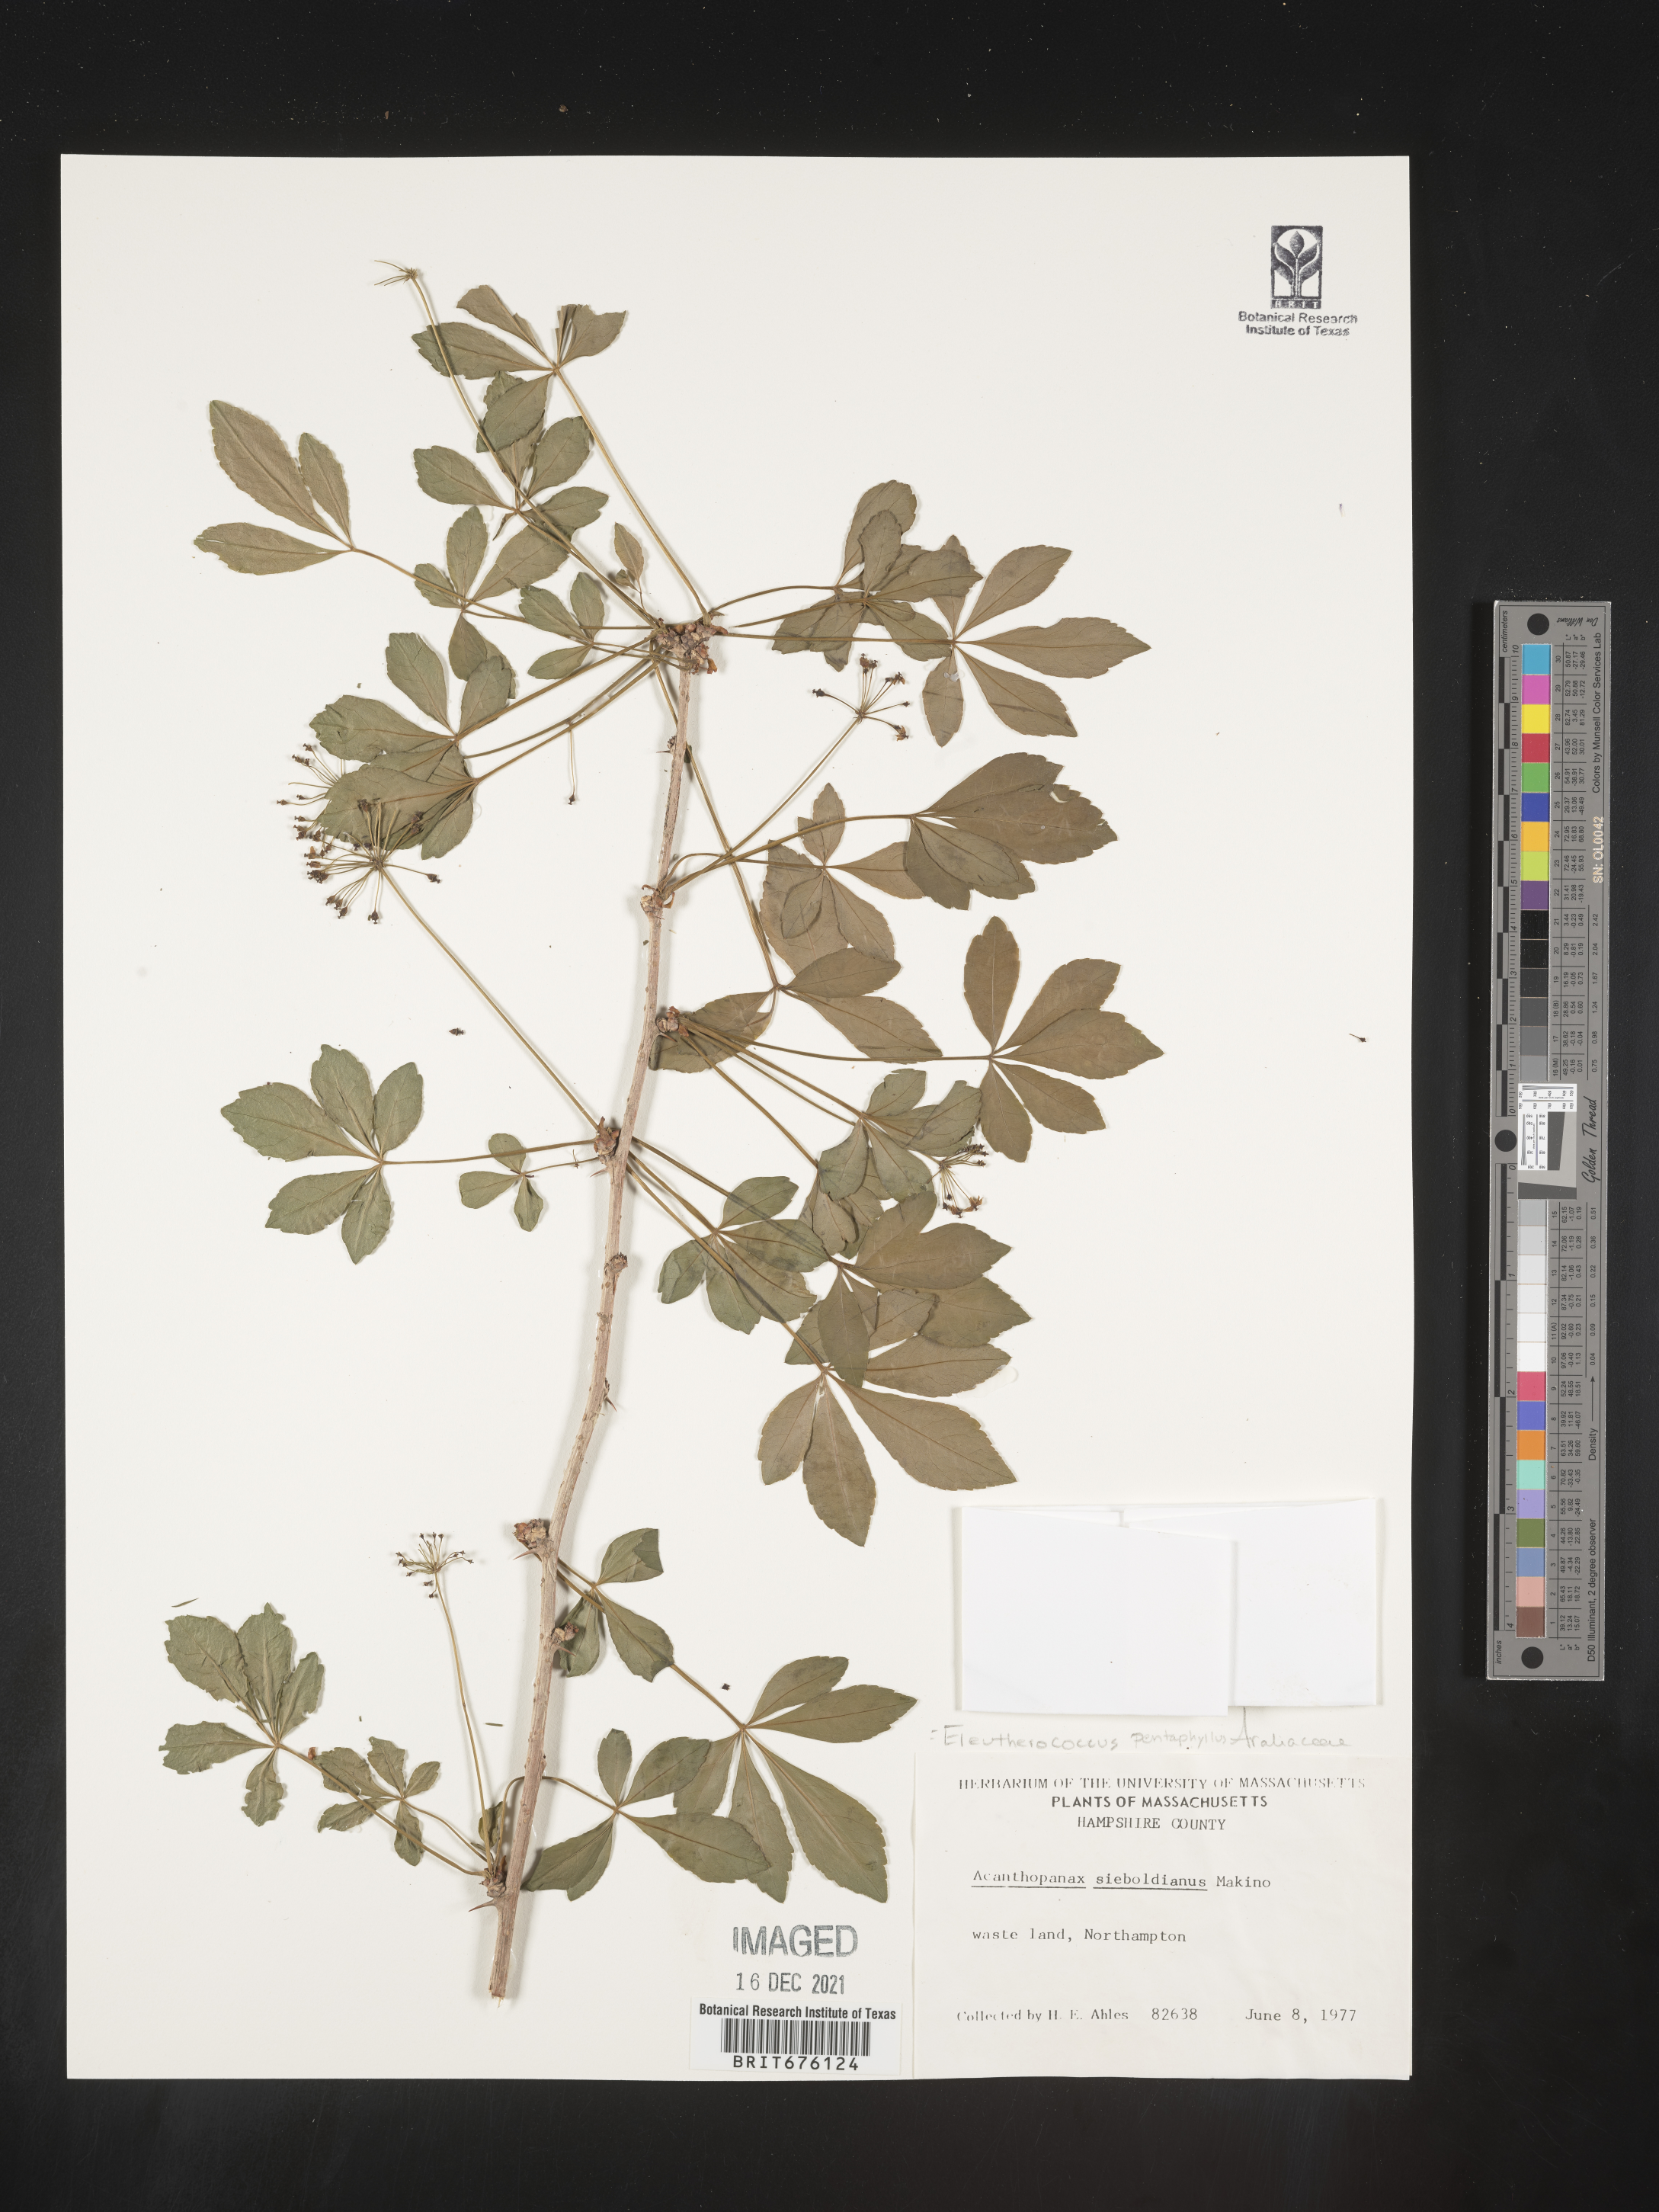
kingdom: Plantae
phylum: Tracheophyta
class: Magnoliopsida
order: Apiales
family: Araliaceae
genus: Eleutherococcus
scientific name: Eleutherococcus
